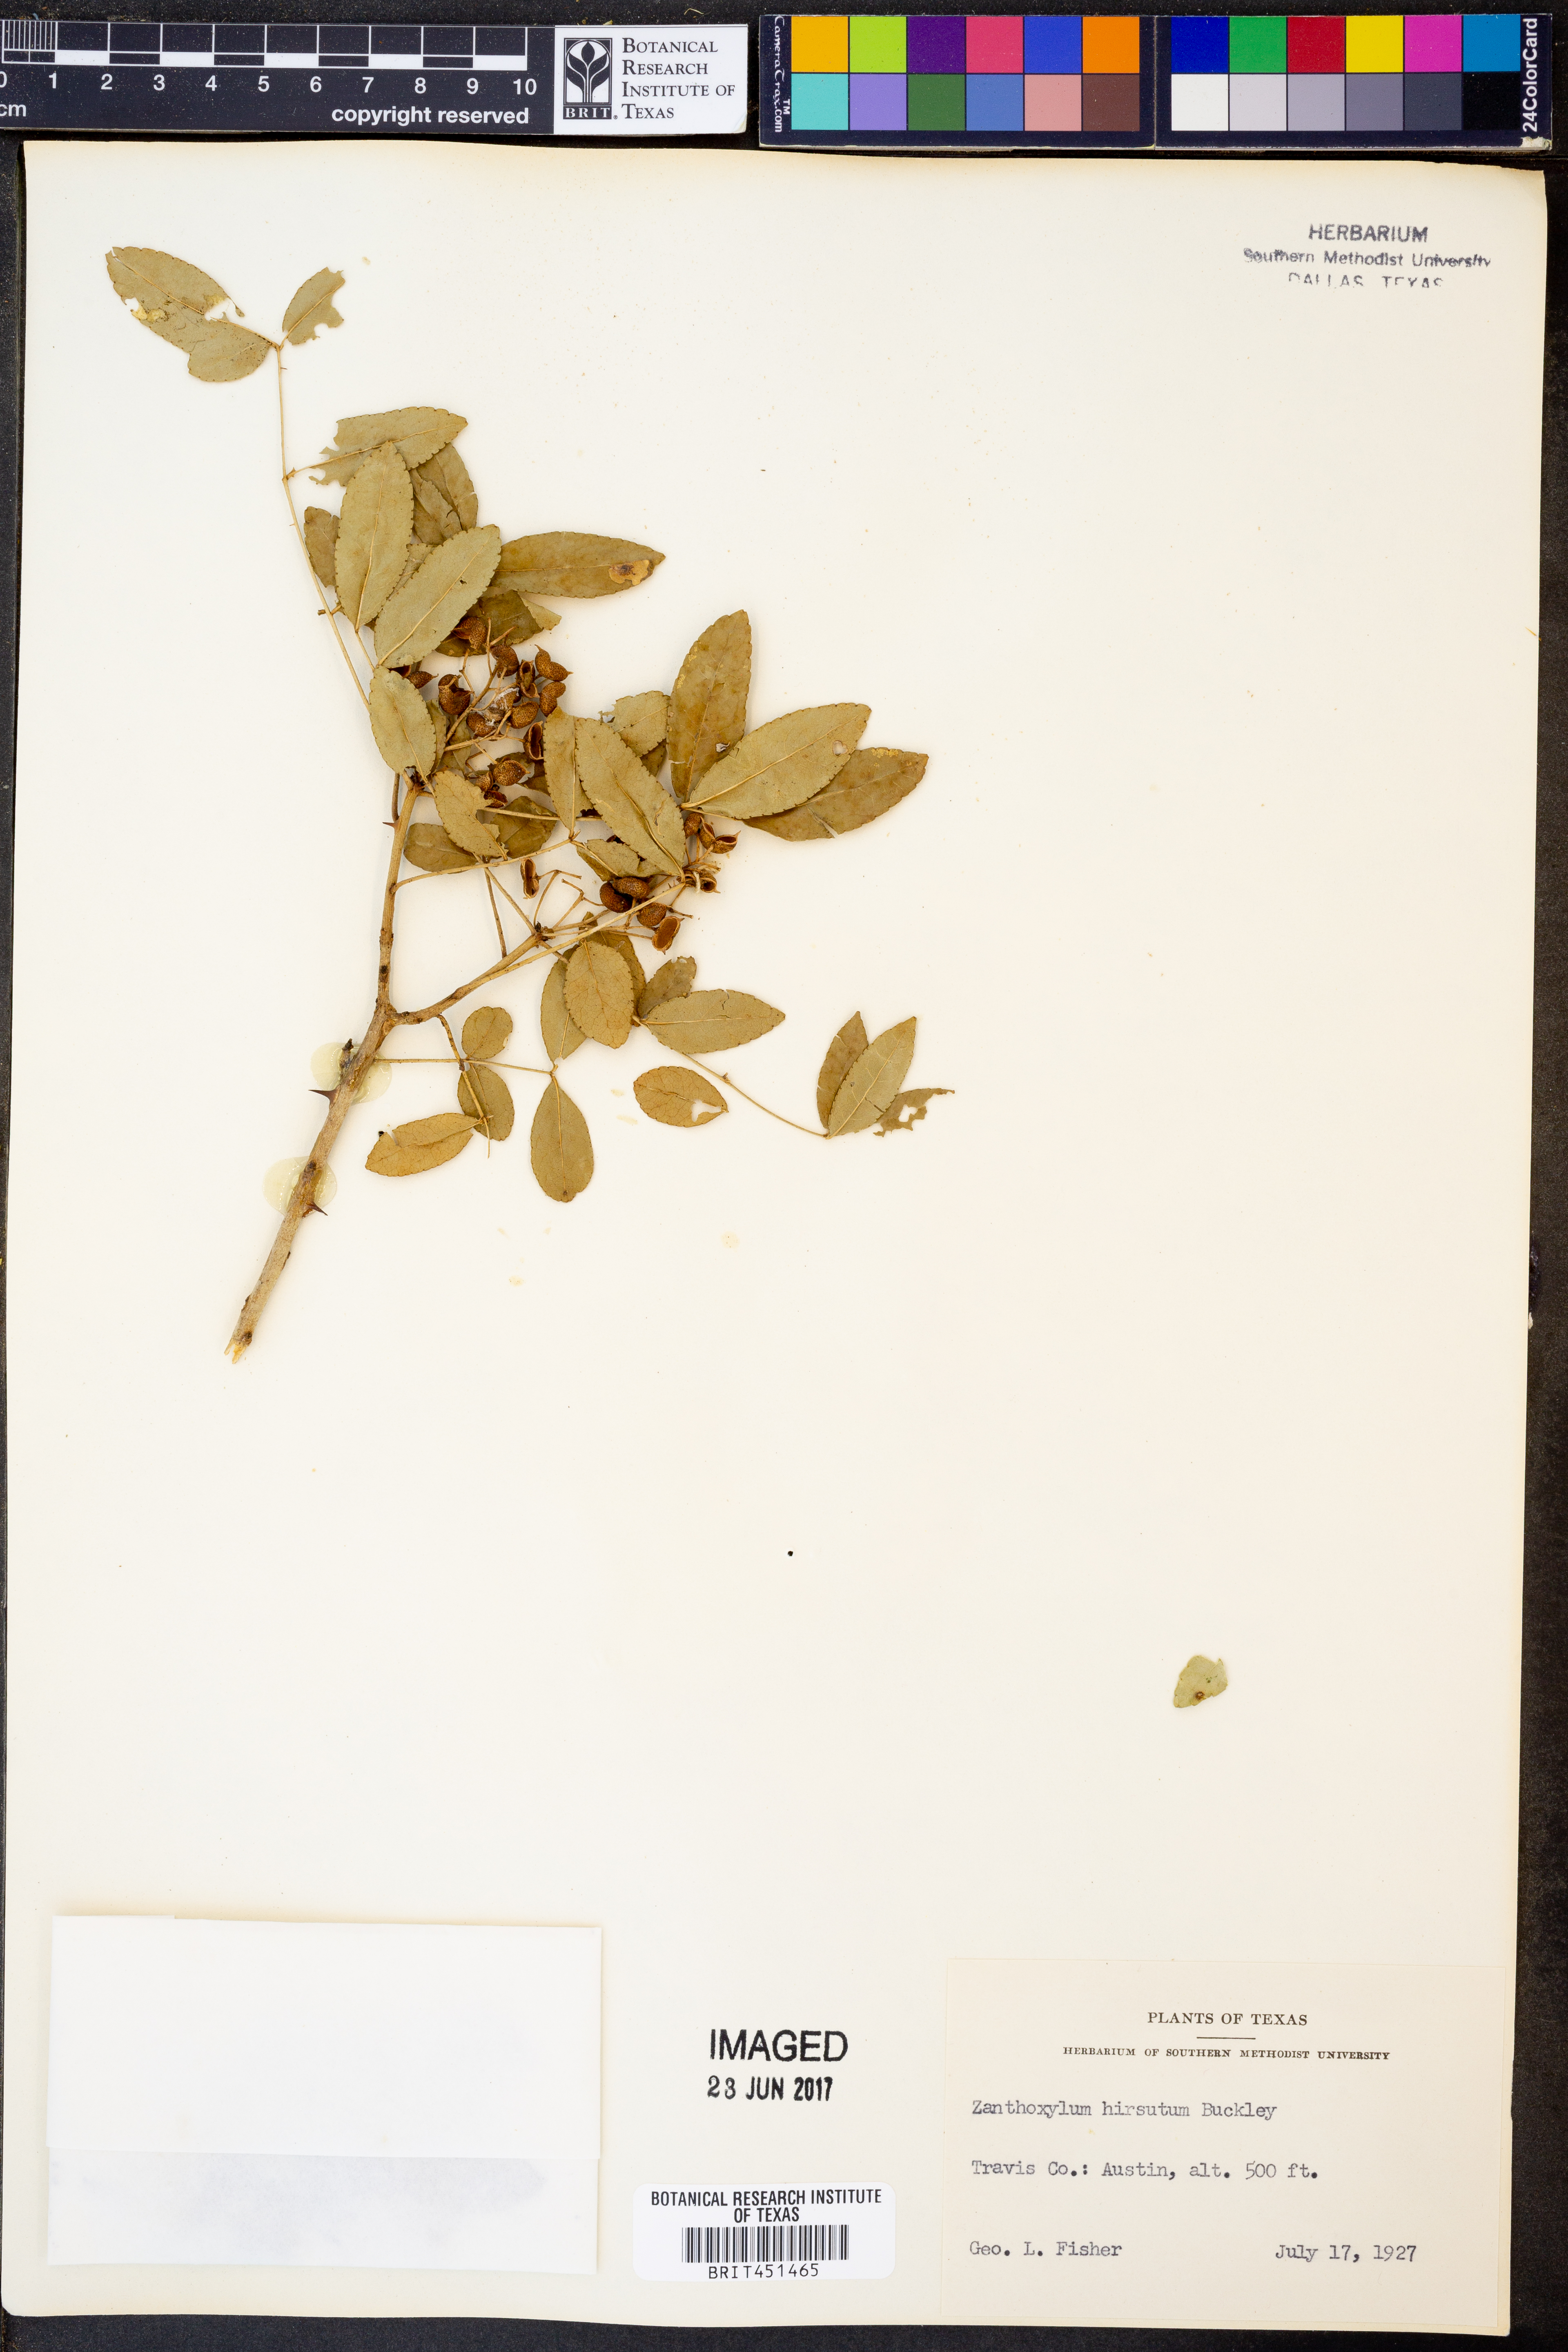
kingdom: Plantae
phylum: Tracheophyta
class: Magnoliopsida
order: Sapindales
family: Rutaceae
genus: Zanthoxylum
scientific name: Zanthoxylum clava-herculis
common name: Hercules'-club
